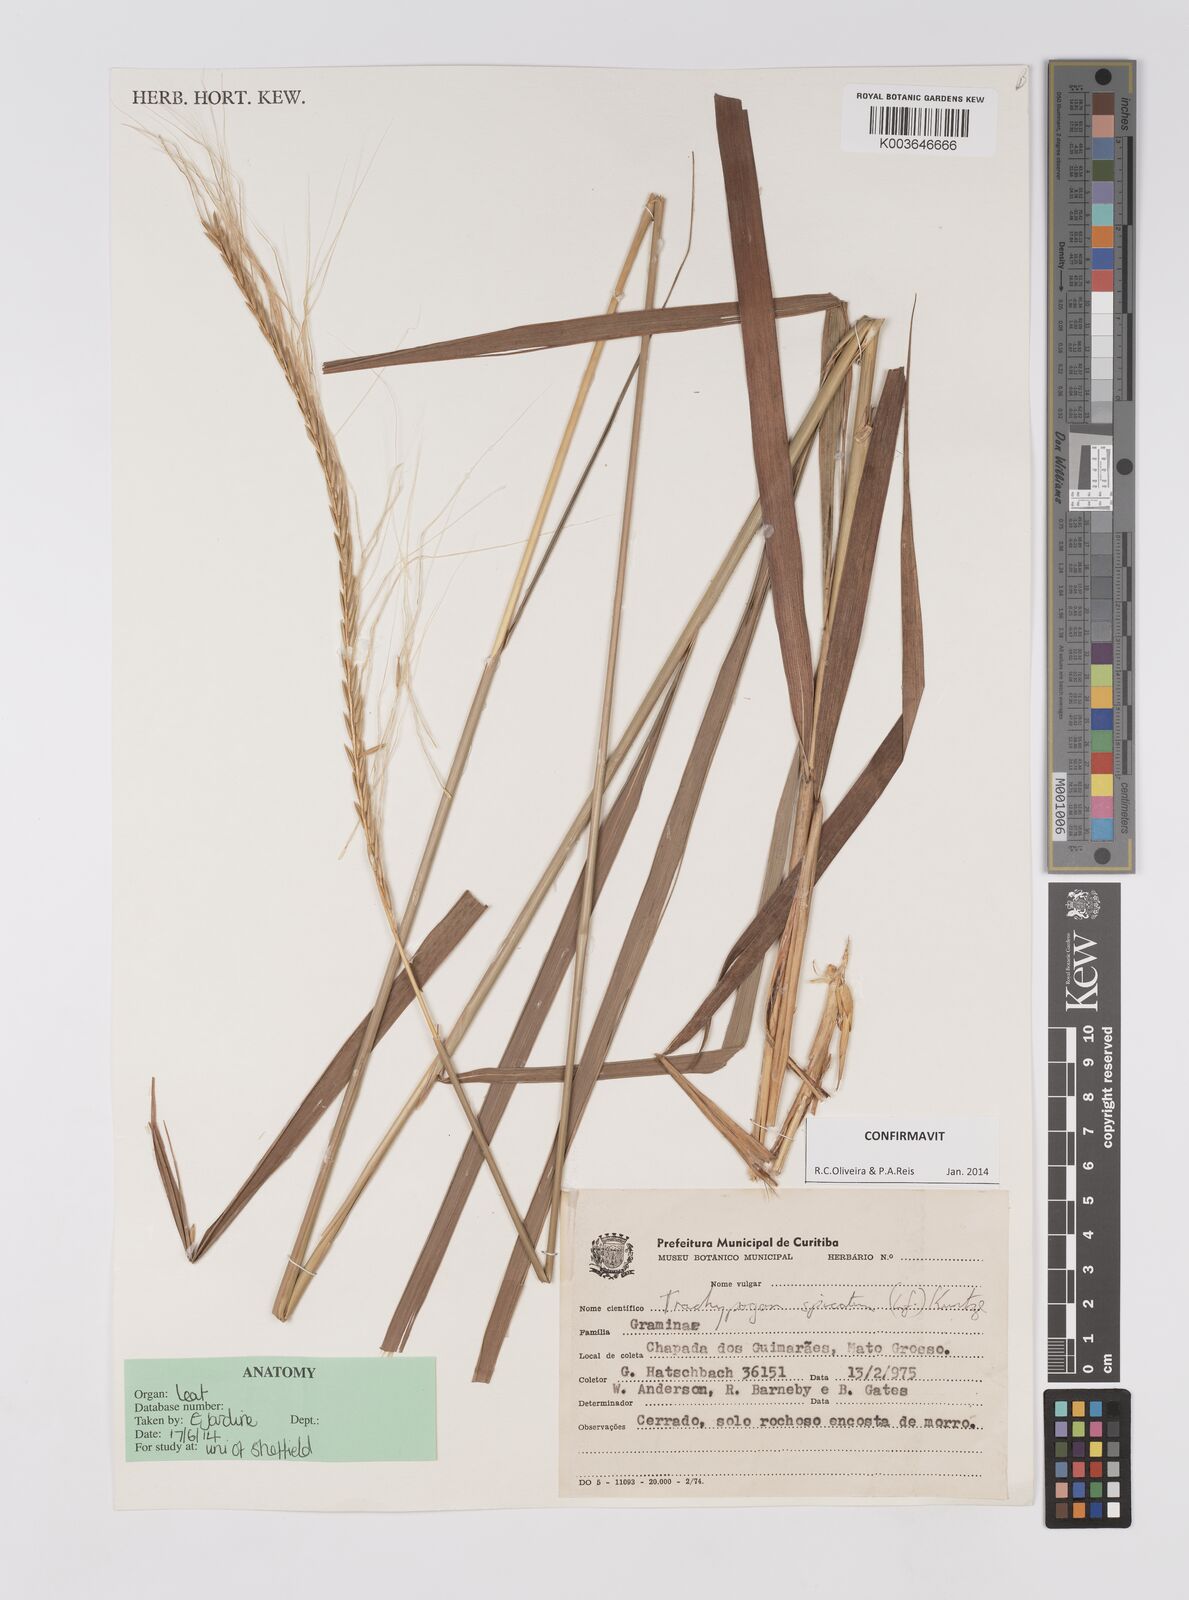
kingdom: Plantae
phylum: Tracheophyta
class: Liliopsida
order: Poales
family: Poaceae
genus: Trachypogon
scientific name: Trachypogon spicatus
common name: Crinkle-awn
